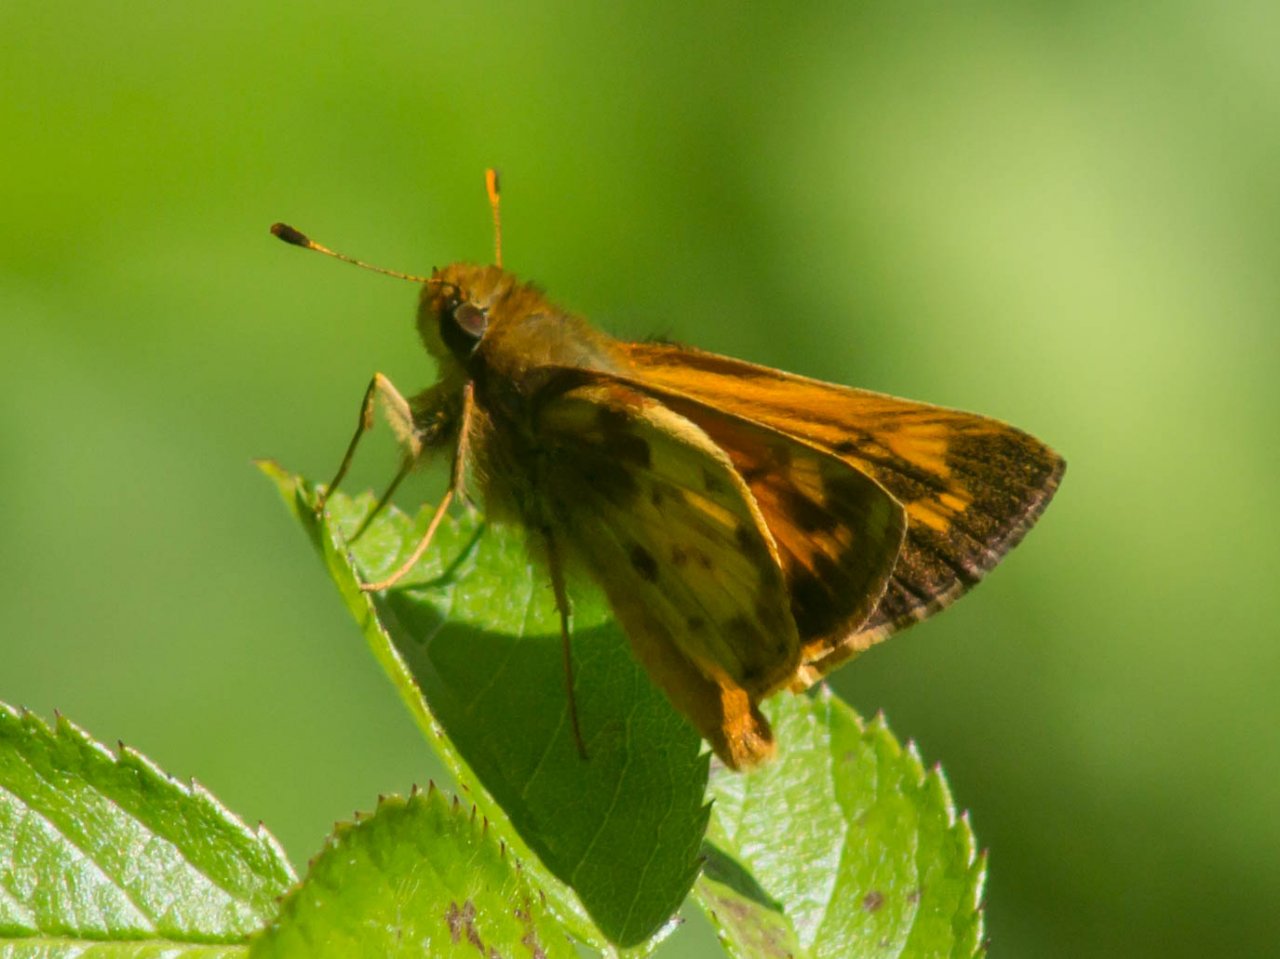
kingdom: Animalia
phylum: Arthropoda
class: Insecta
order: Lepidoptera
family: Hesperiidae
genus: Lon
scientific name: Lon zabulon
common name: Zabulon Skipper
